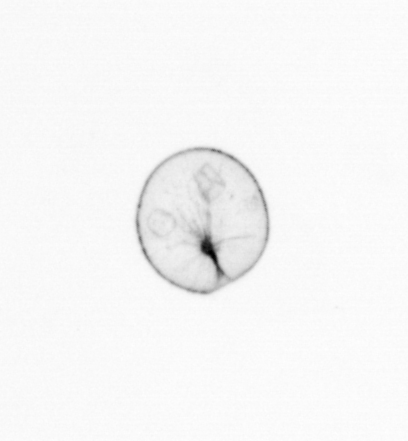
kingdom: Chromista
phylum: Myzozoa
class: Dinophyceae
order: Noctilucales
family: Noctilucaceae
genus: Noctiluca
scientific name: Noctiluca scintillans
